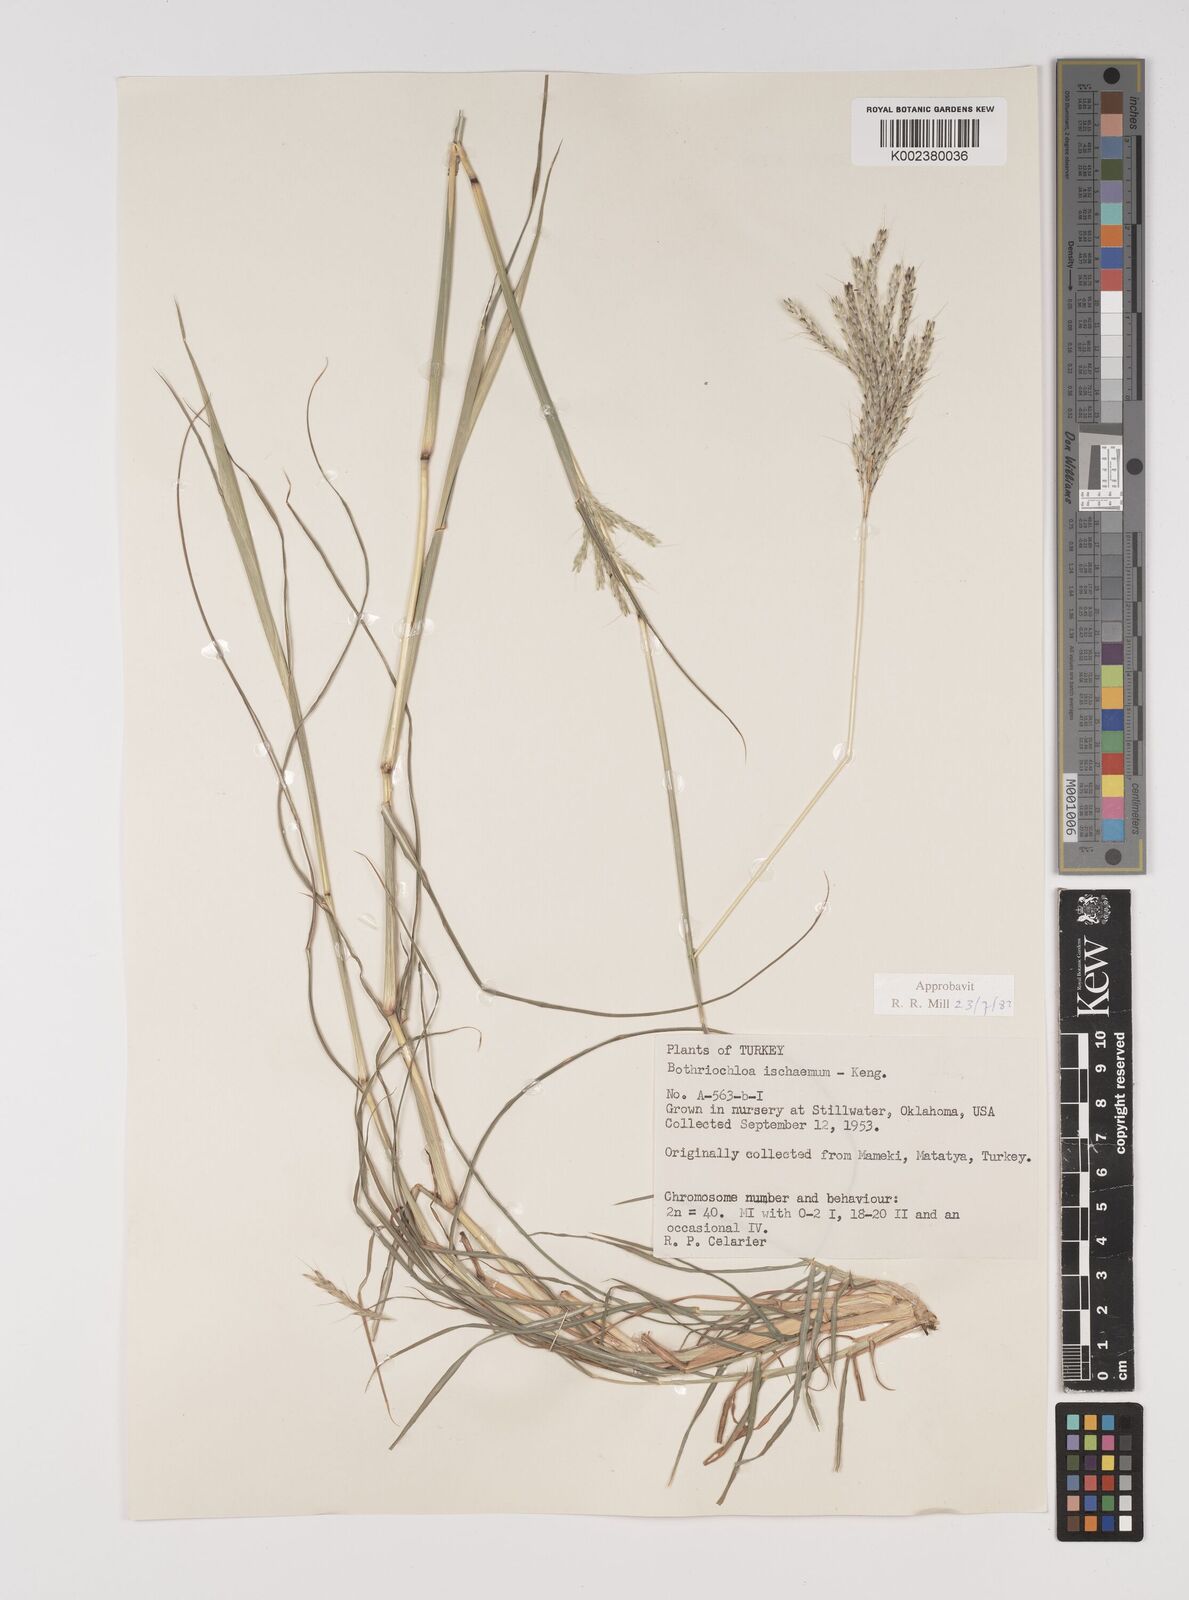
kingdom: Plantae
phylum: Tracheophyta
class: Liliopsida
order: Poales
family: Poaceae
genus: Bothriochloa
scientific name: Bothriochloa ischaemum
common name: Yellow bluestem
